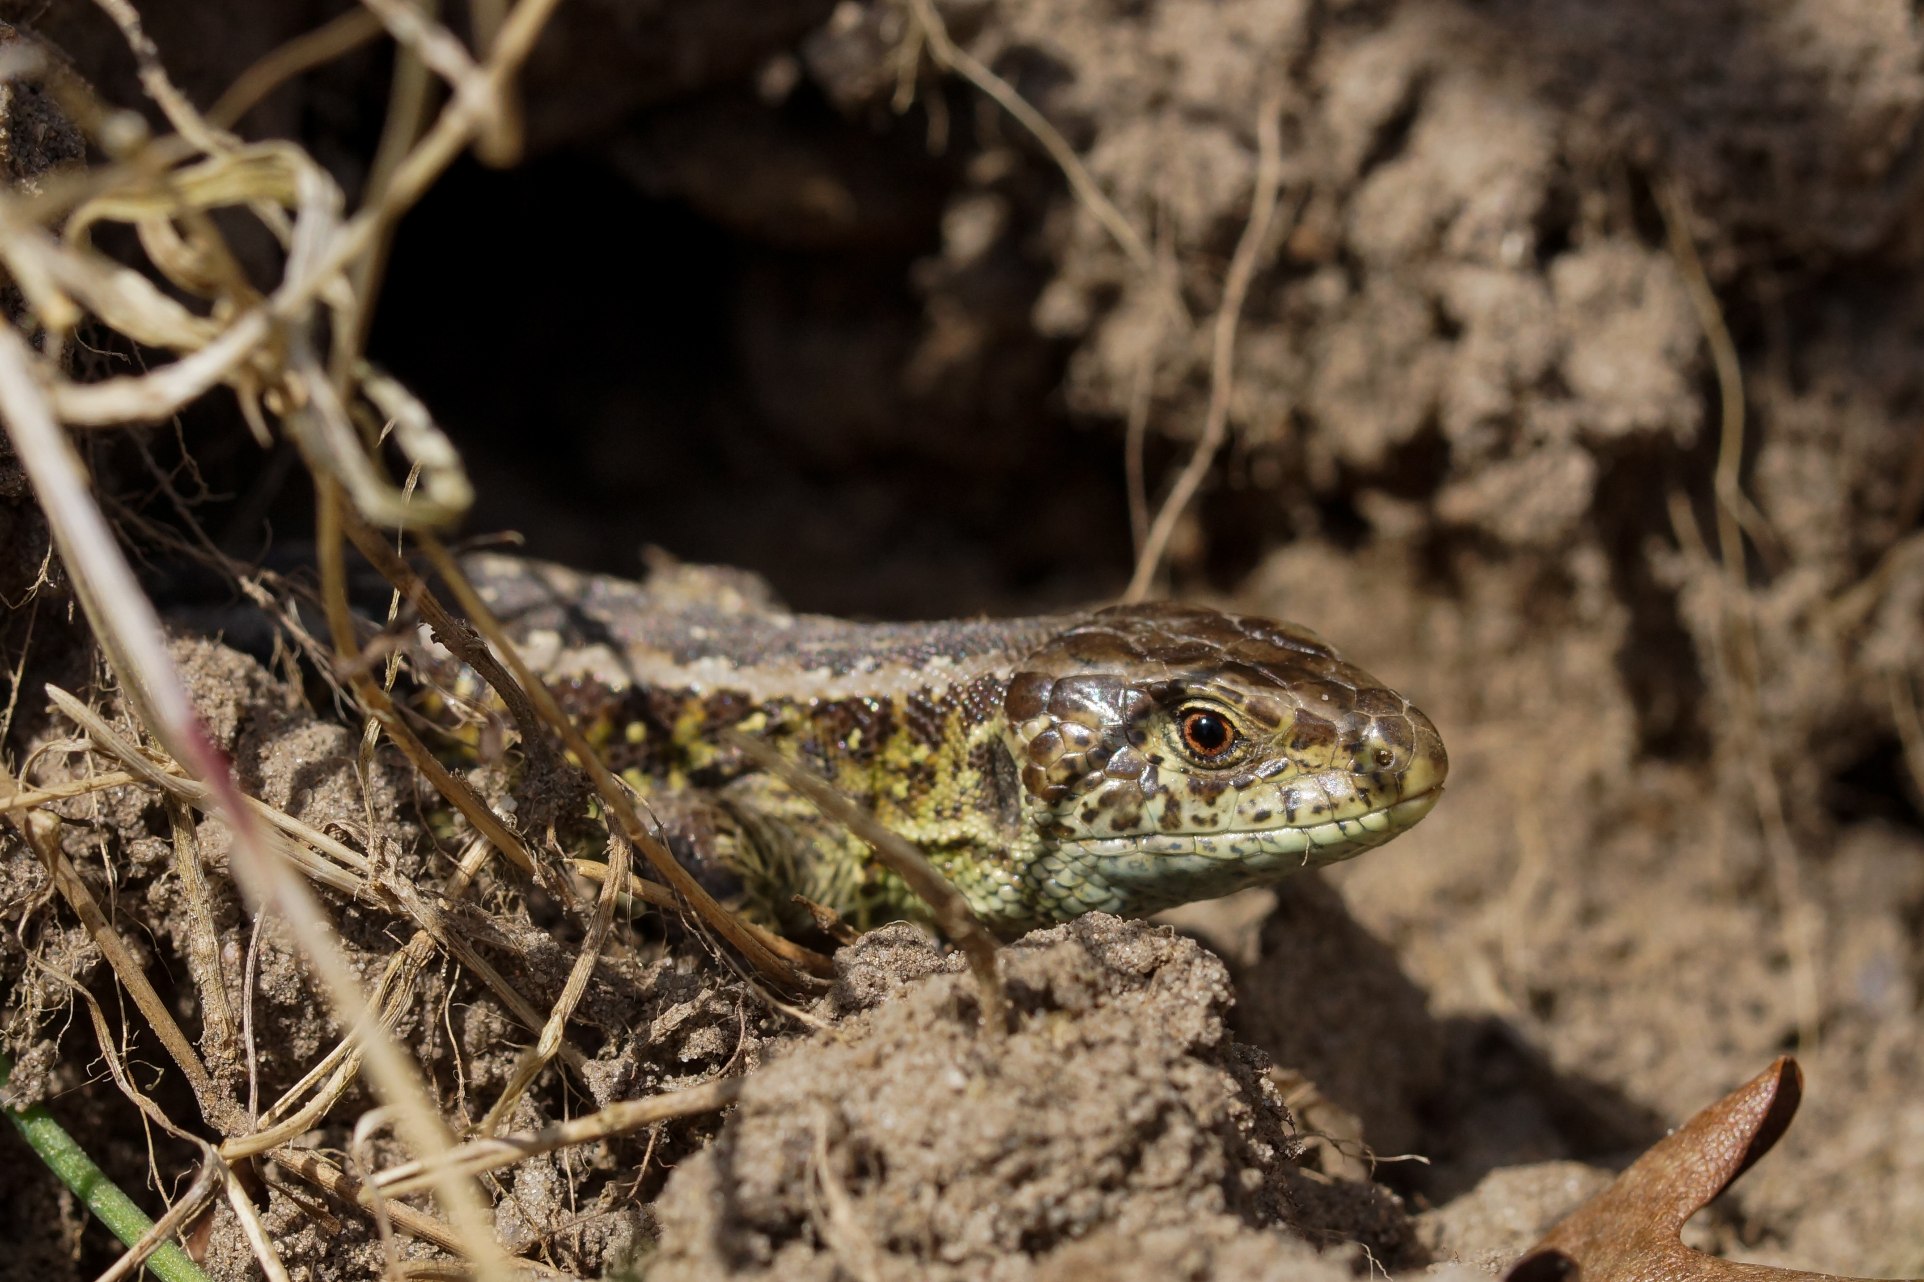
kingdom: Animalia
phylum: Chordata
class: Squamata
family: Lacertidae
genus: Lacerta
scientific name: Lacerta agilis
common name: Markfirben
